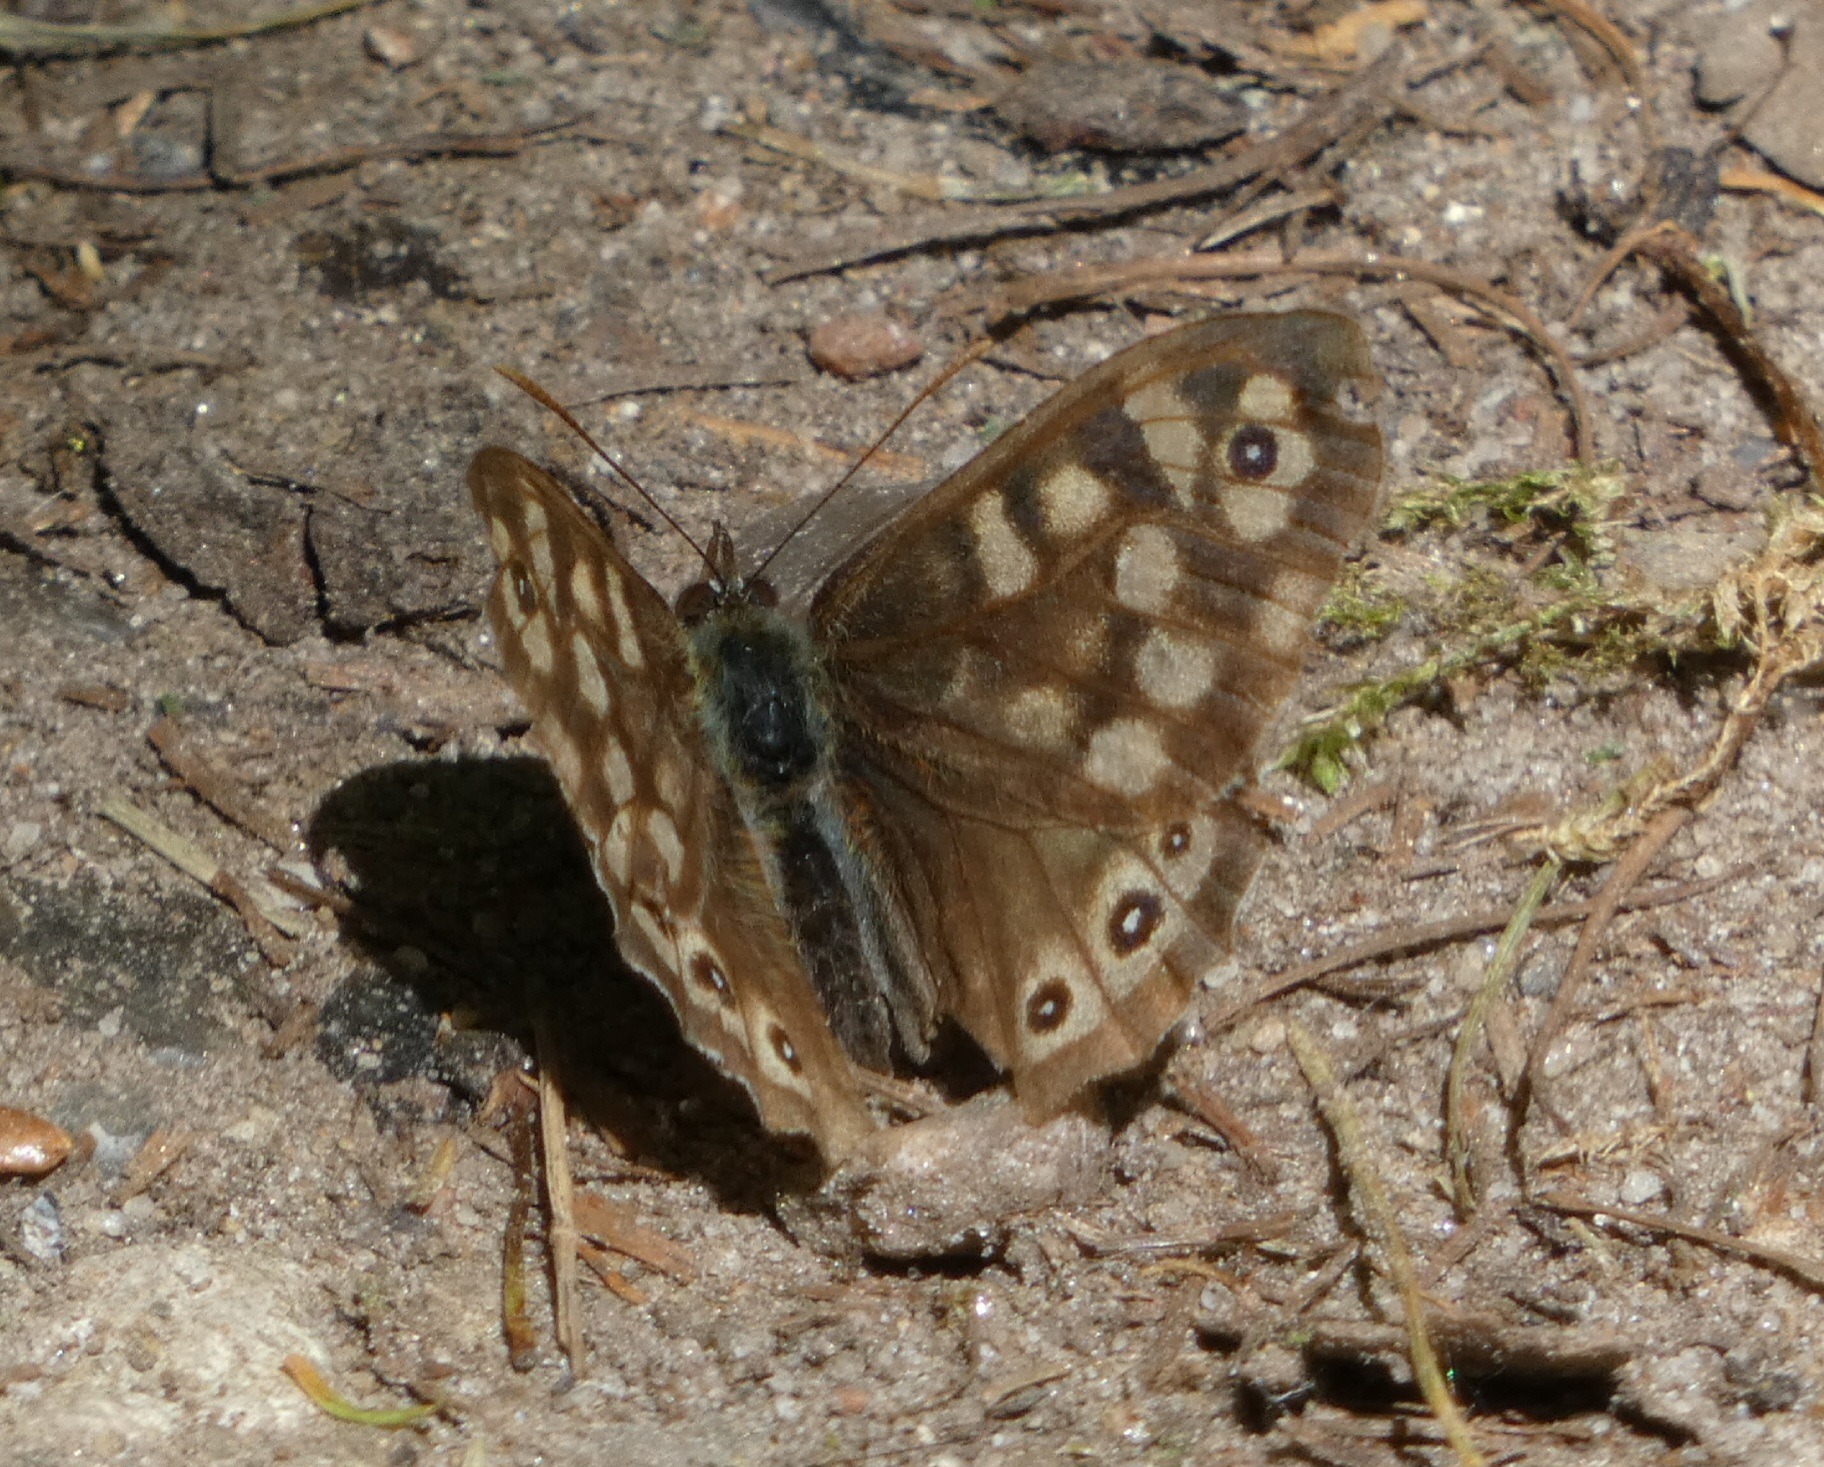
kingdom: Animalia
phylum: Arthropoda
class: Insecta
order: Lepidoptera
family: Nymphalidae
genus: Pararge
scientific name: Pararge aegeria
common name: Skovrandøje
